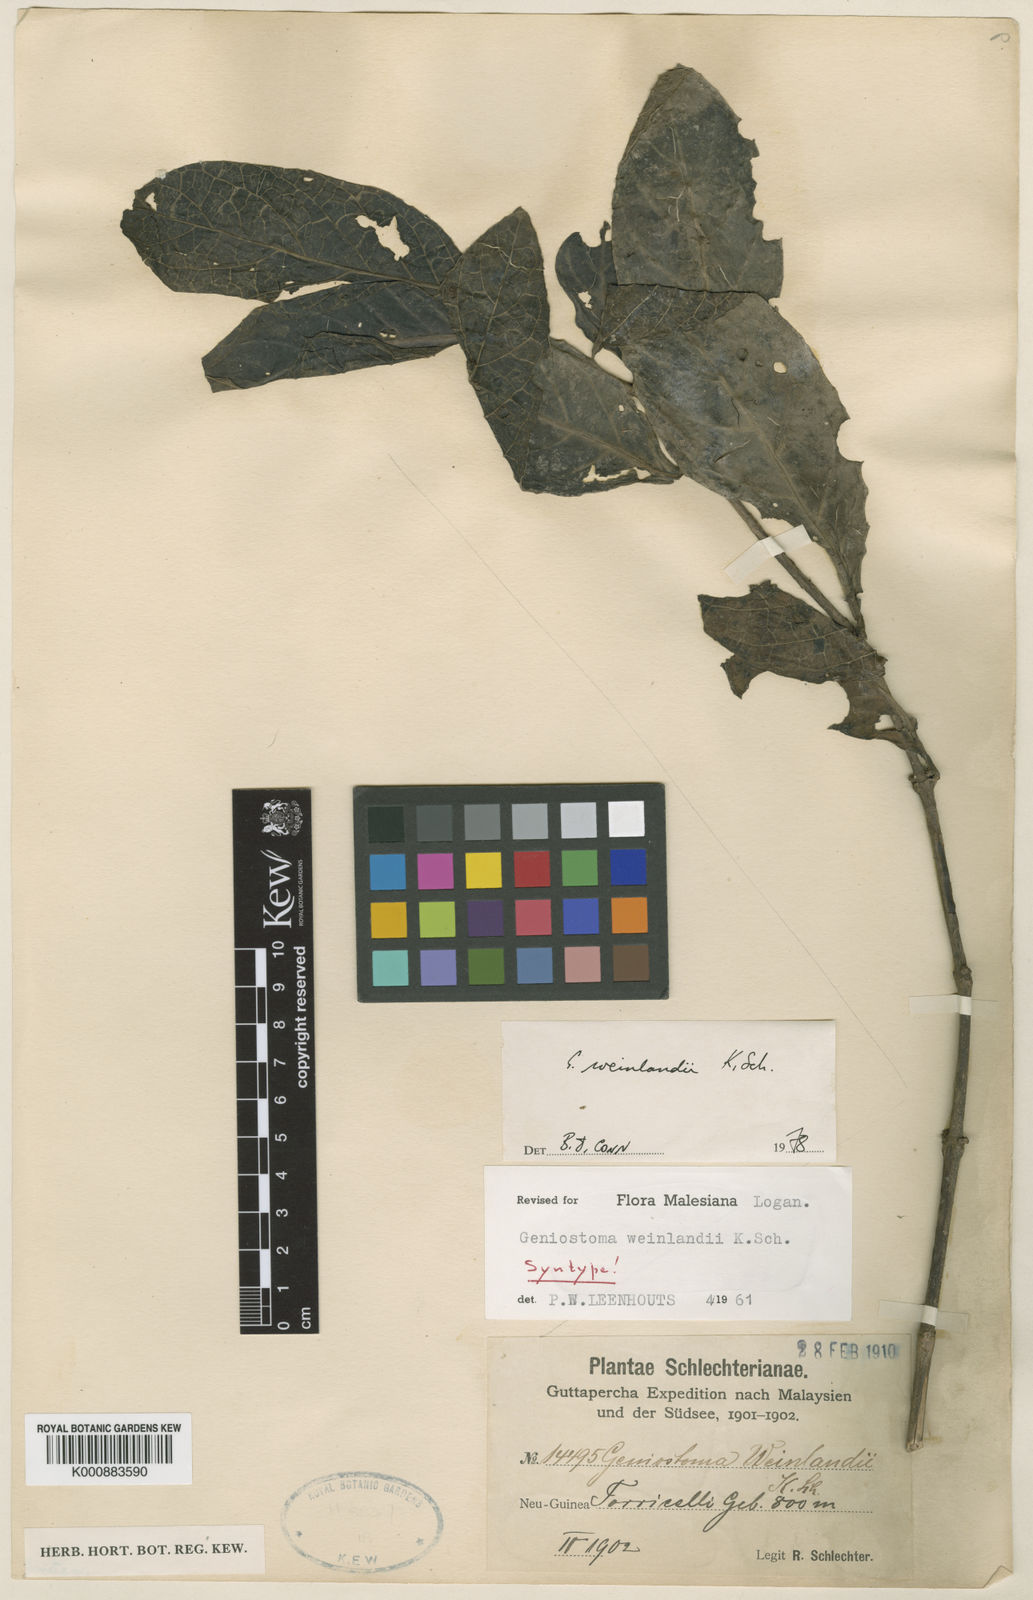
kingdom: Plantae
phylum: Tracheophyta
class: Magnoliopsida
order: Gentianales
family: Loganiaceae
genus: Geniostoma
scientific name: Geniostoma weinlandii
